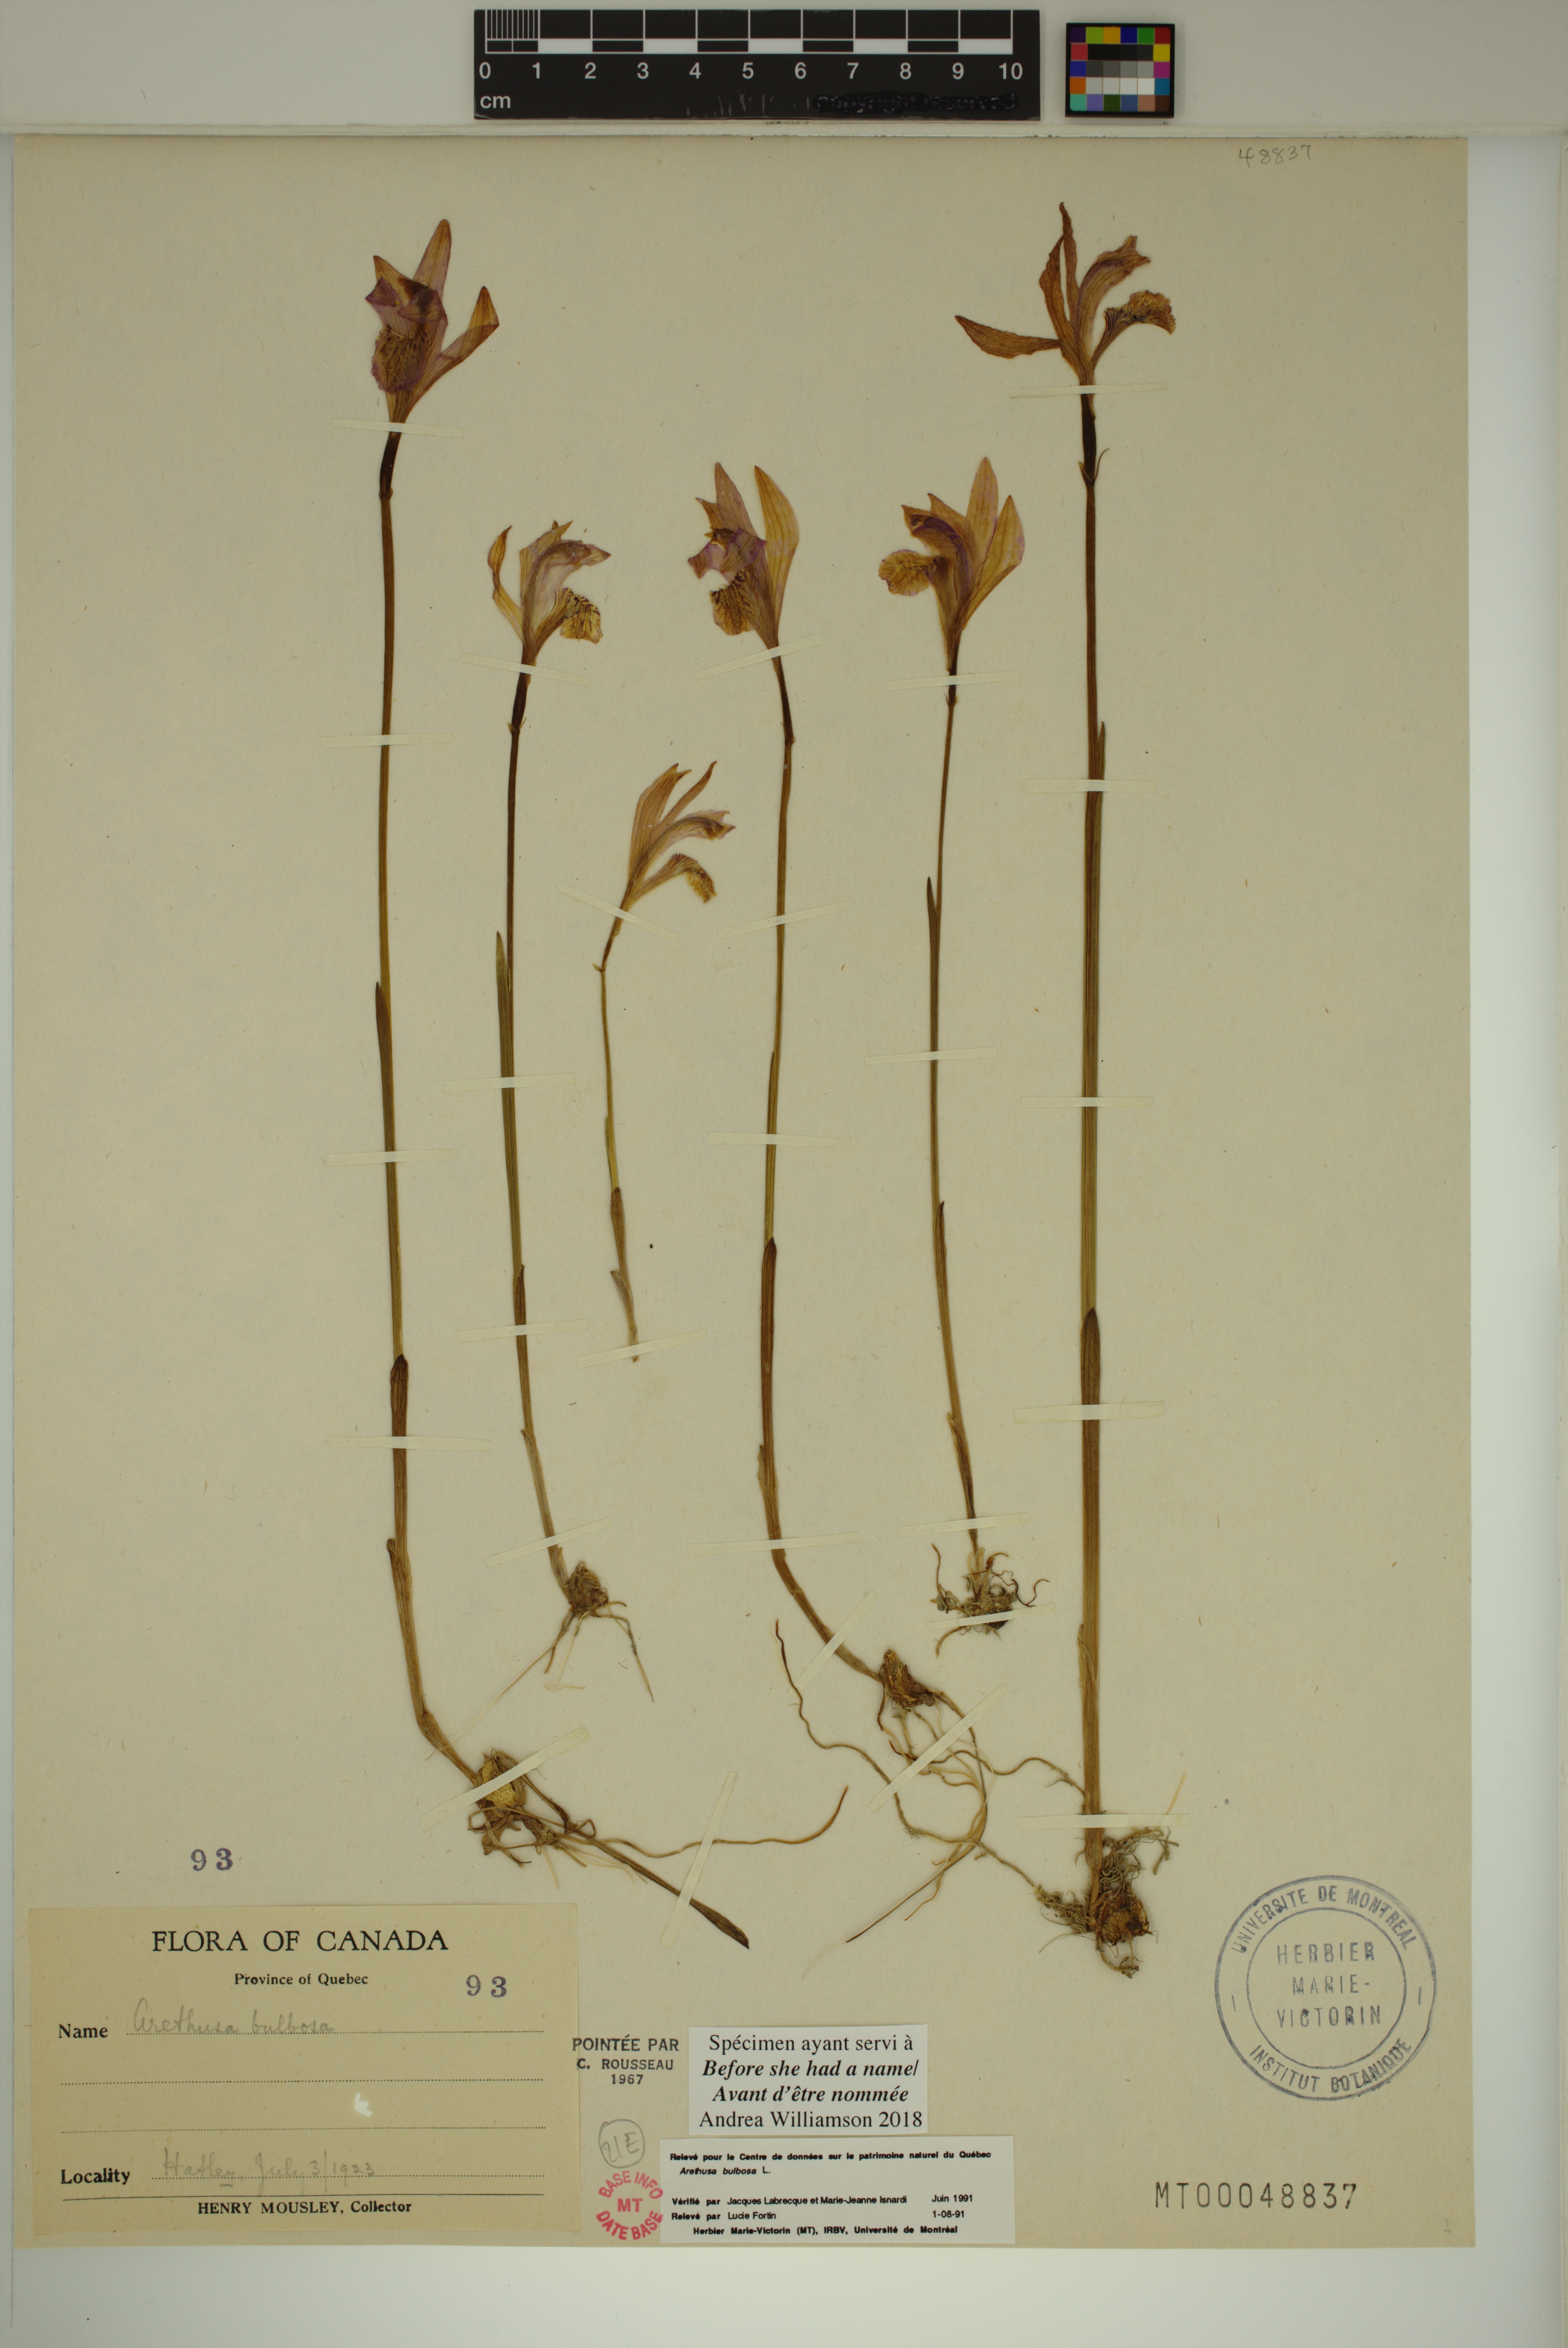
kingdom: Plantae
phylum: Tracheophyta
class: Liliopsida
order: Asparagales
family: Orchidaceae
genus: Arethusa
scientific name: Arethusa bulbosa
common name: Arethusa
